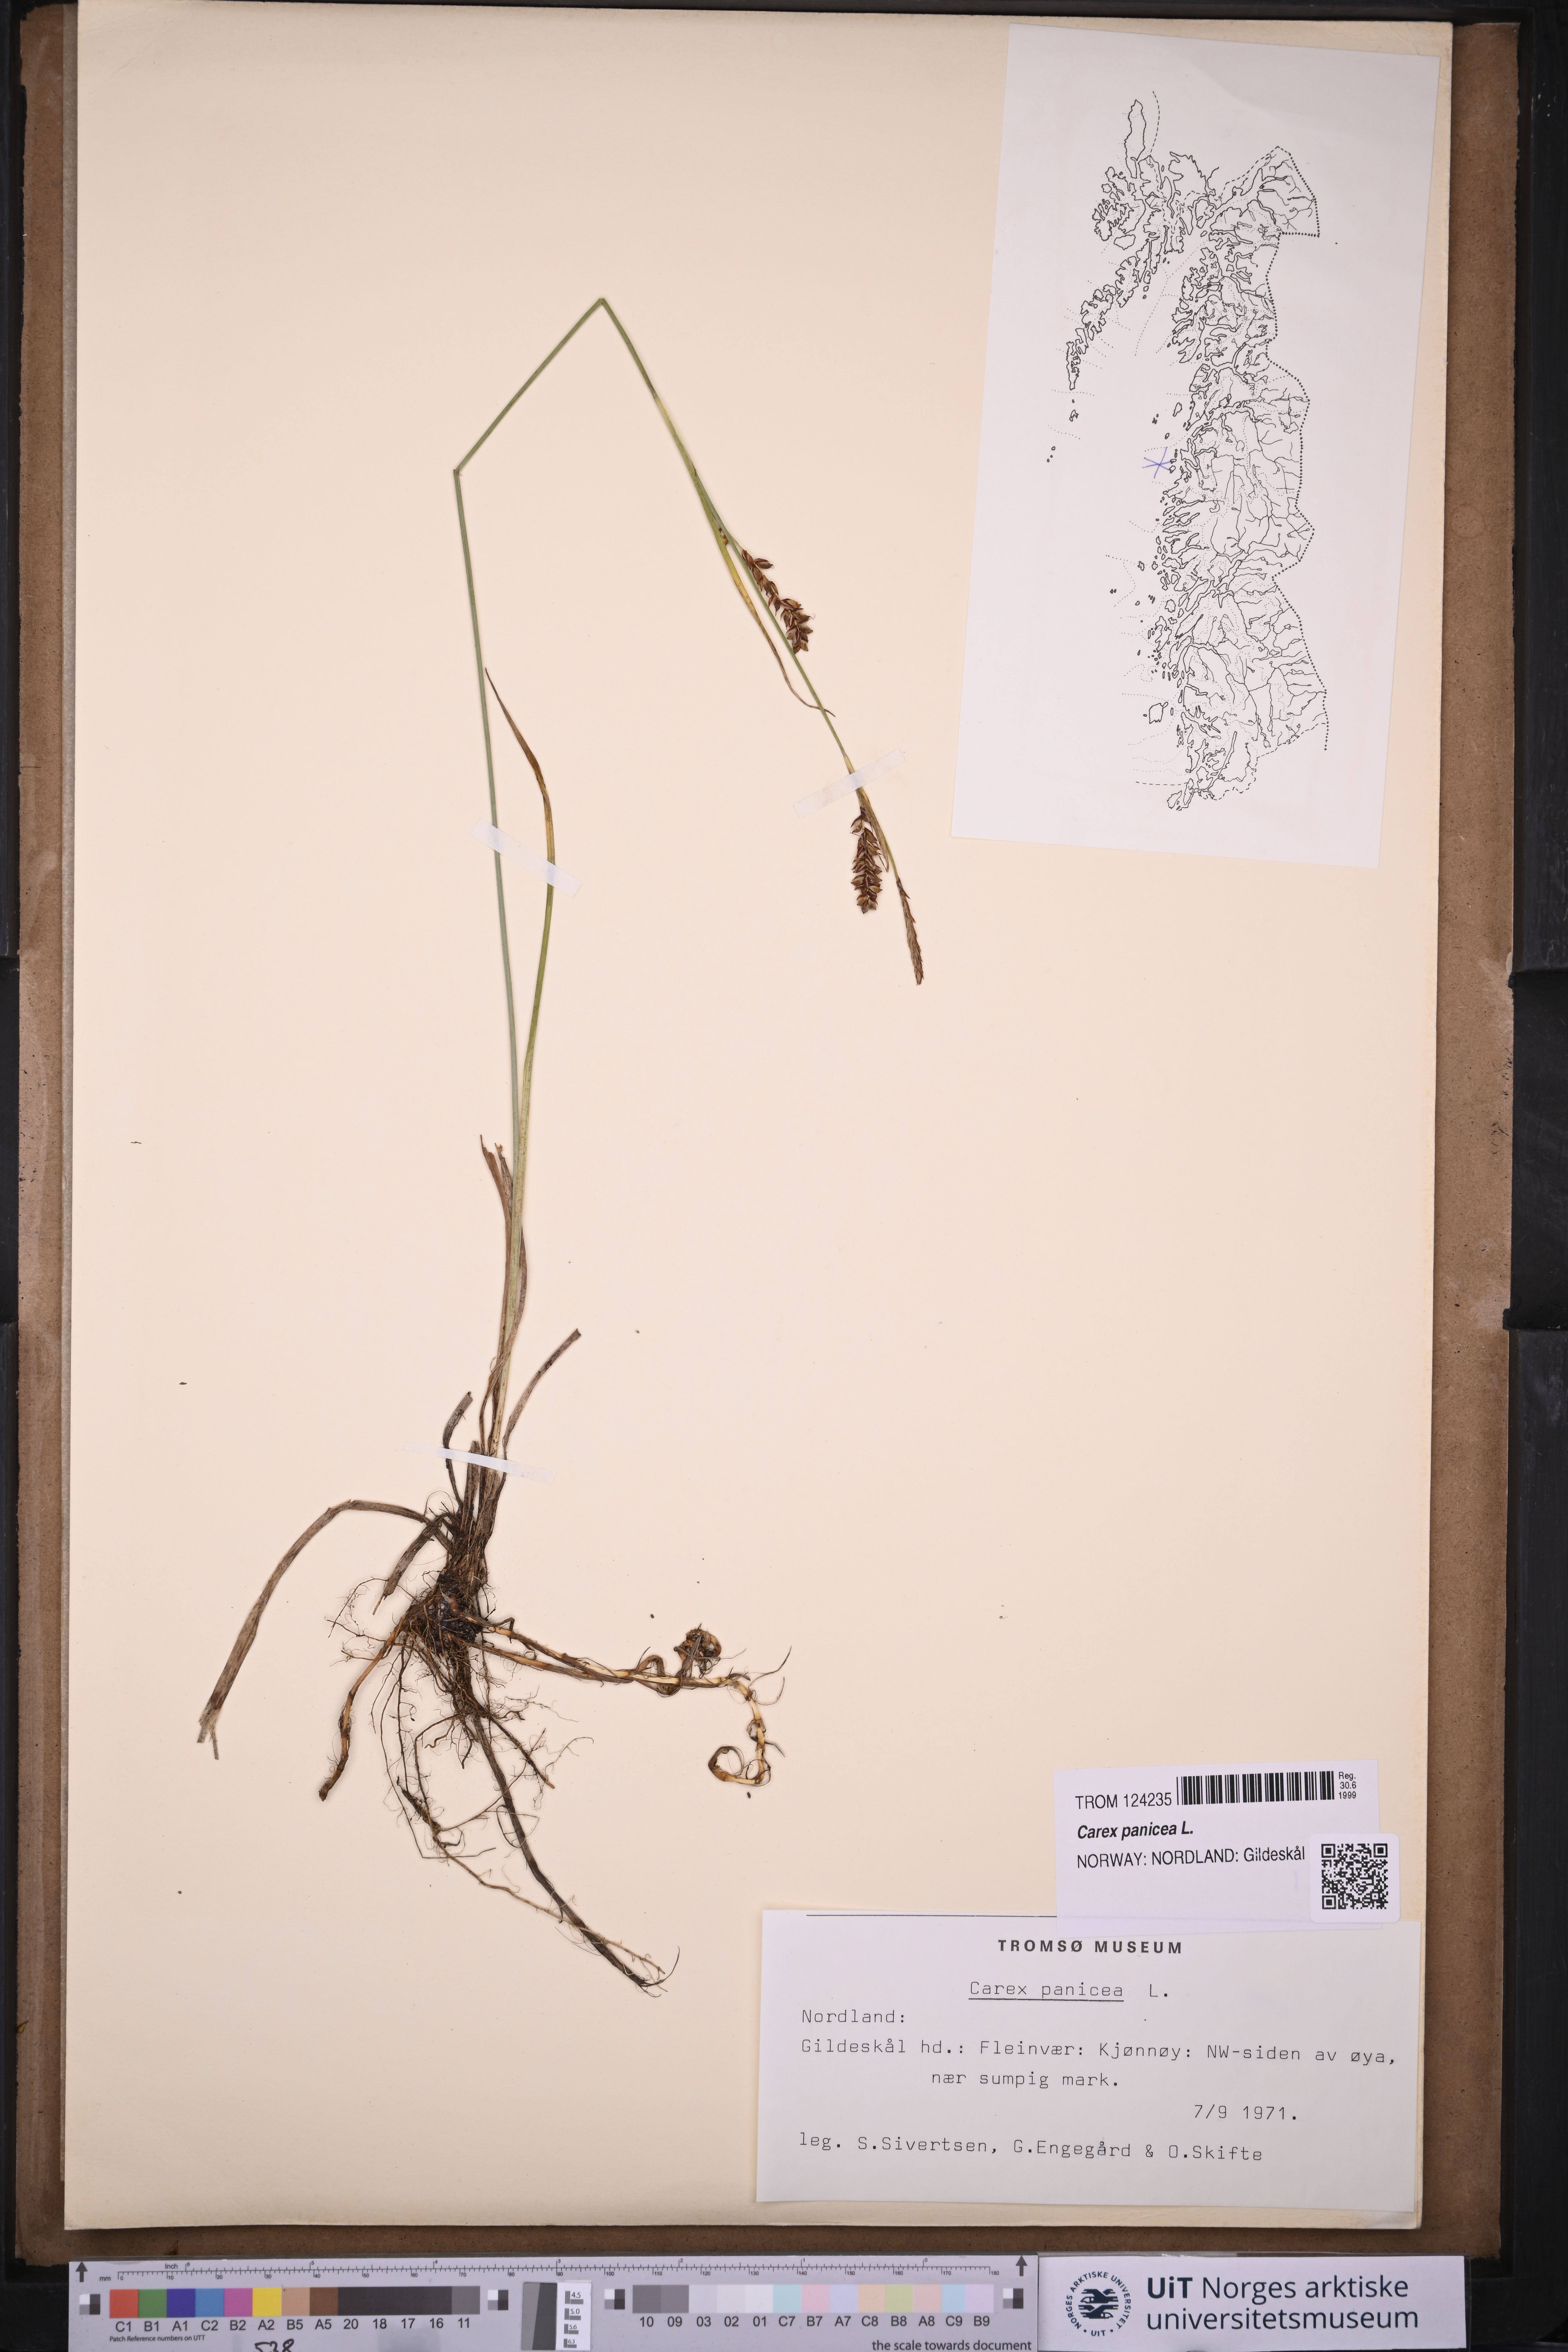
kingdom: Plantae
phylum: Tracheophyta
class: Liliopsida
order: Poales
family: Cyperaceae
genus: Carex
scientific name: Carex panicea
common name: Carnation sedge
